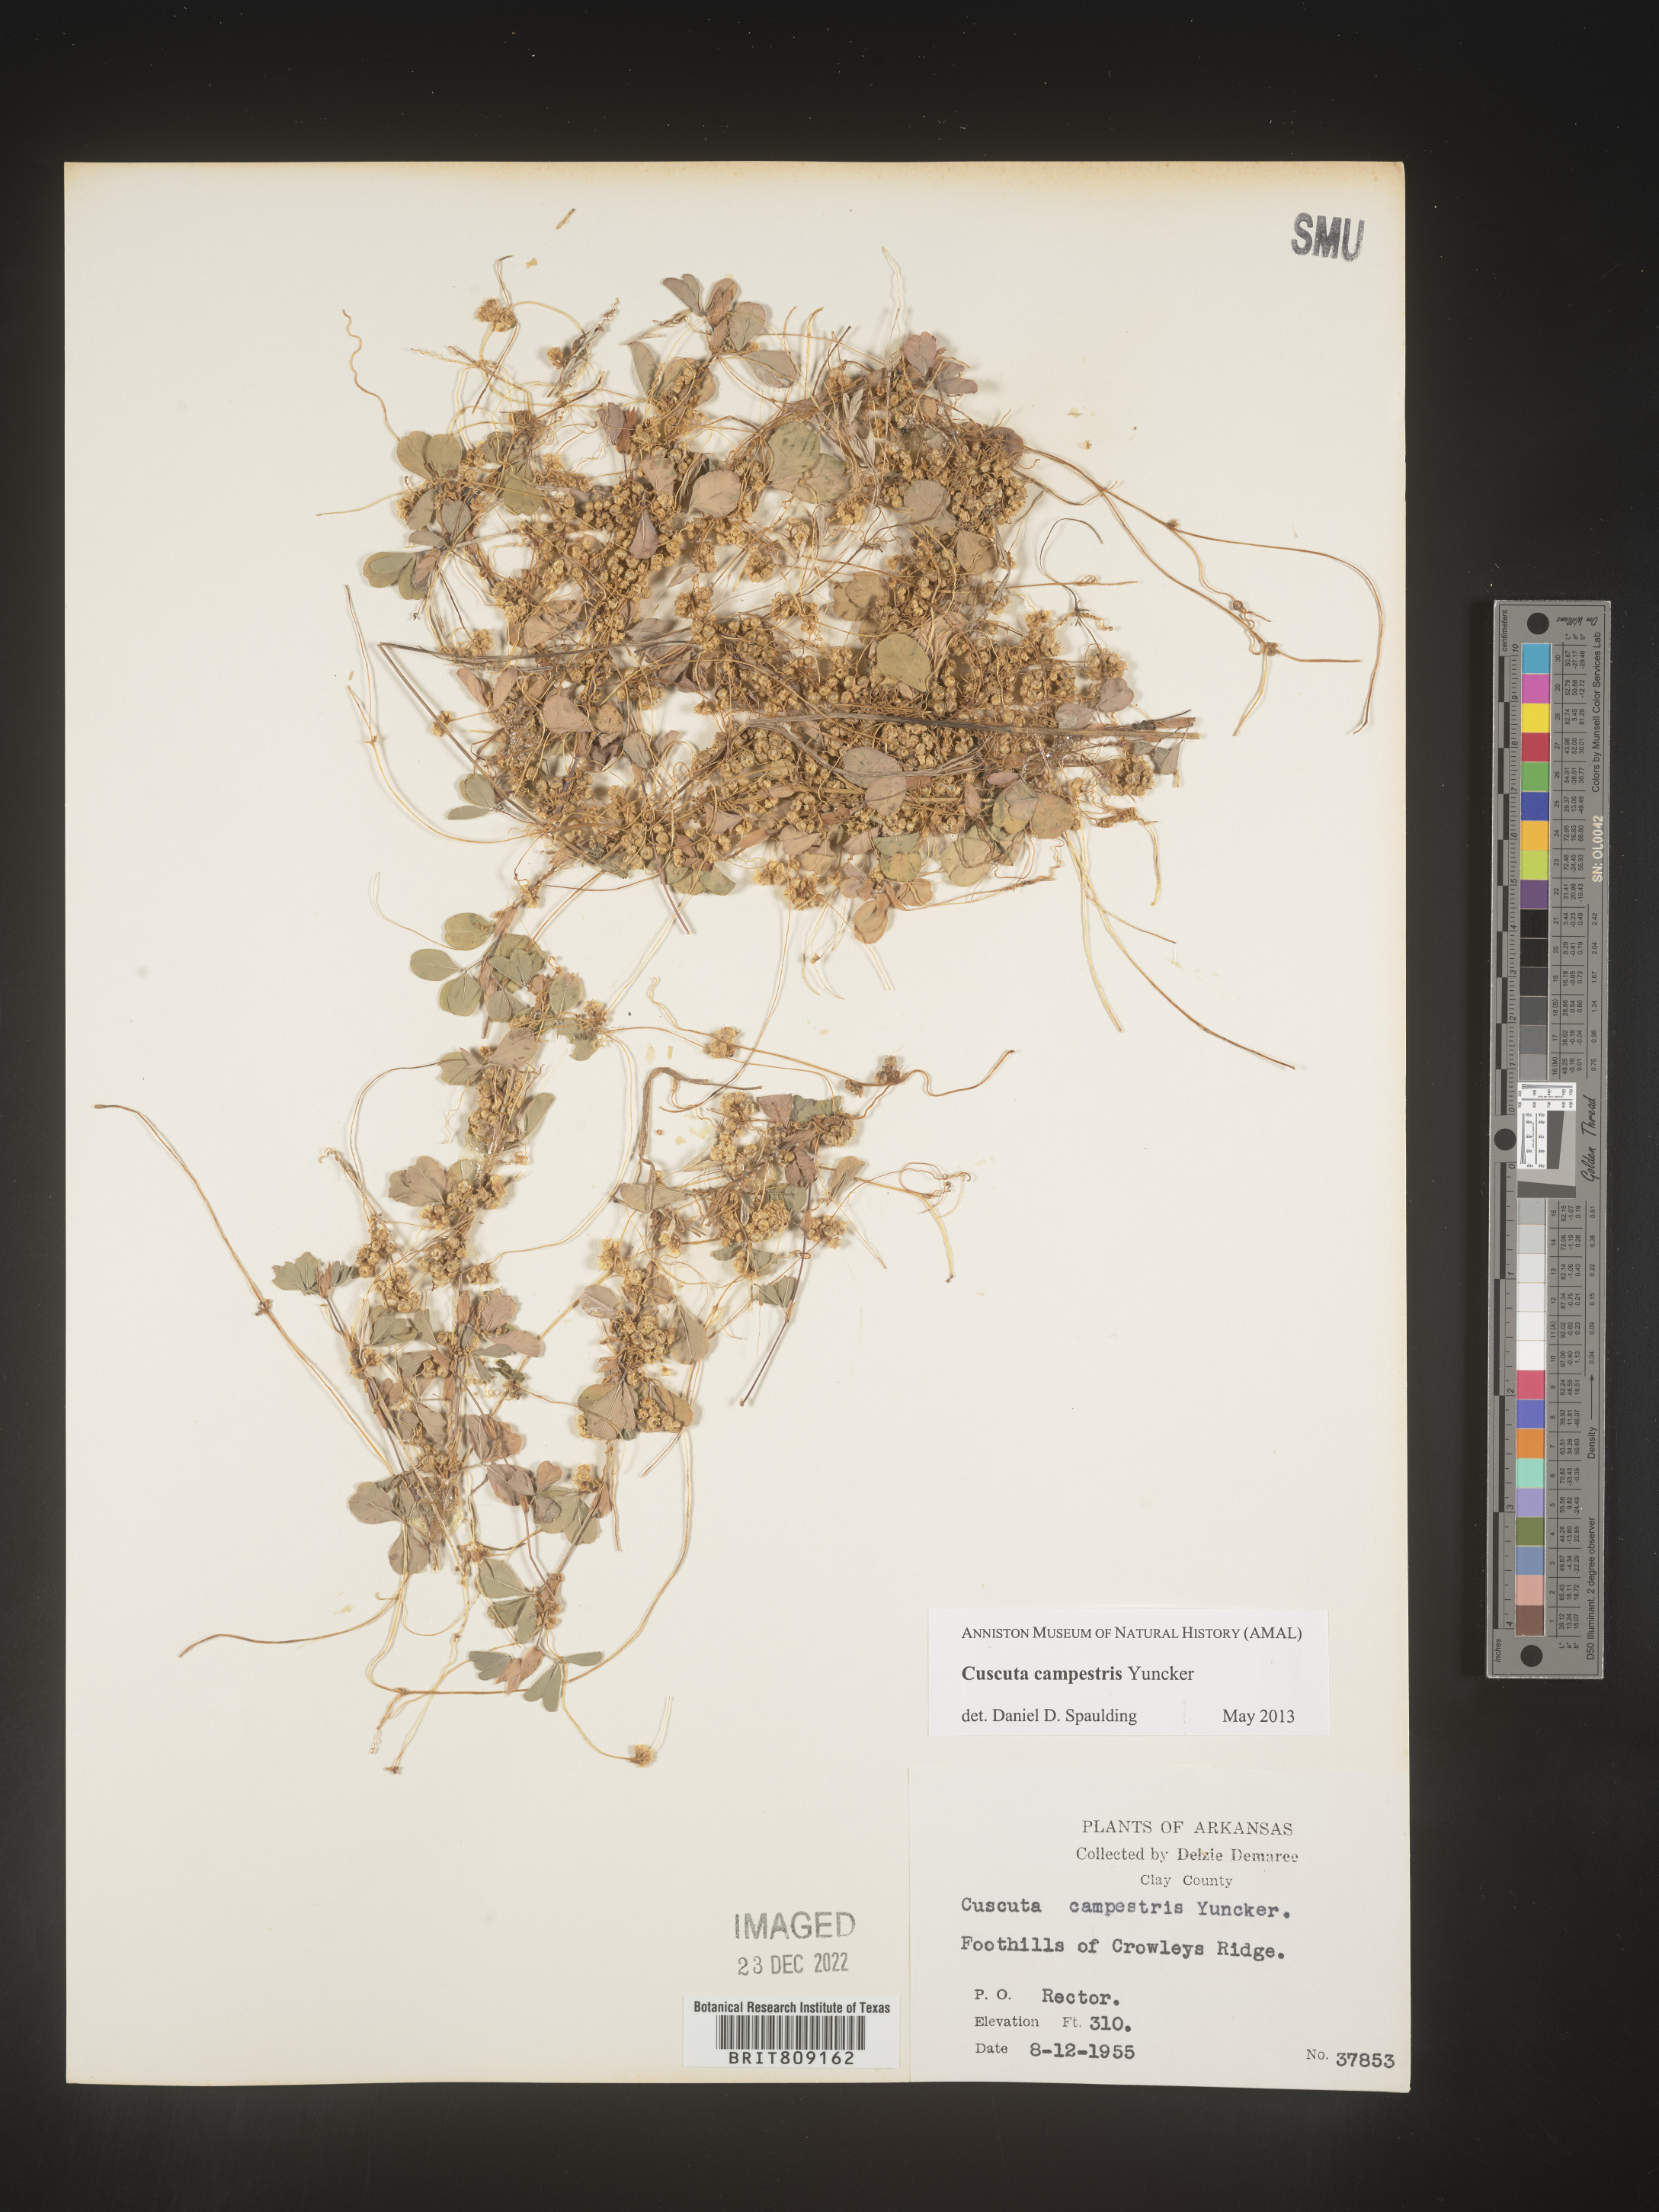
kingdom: Plantae
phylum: Tracheophyta
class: Magnoliopsida
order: Solanales
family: Convolvulaceae
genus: Cuscuta
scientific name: Cuscuta campestris
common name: Yellow dodder
